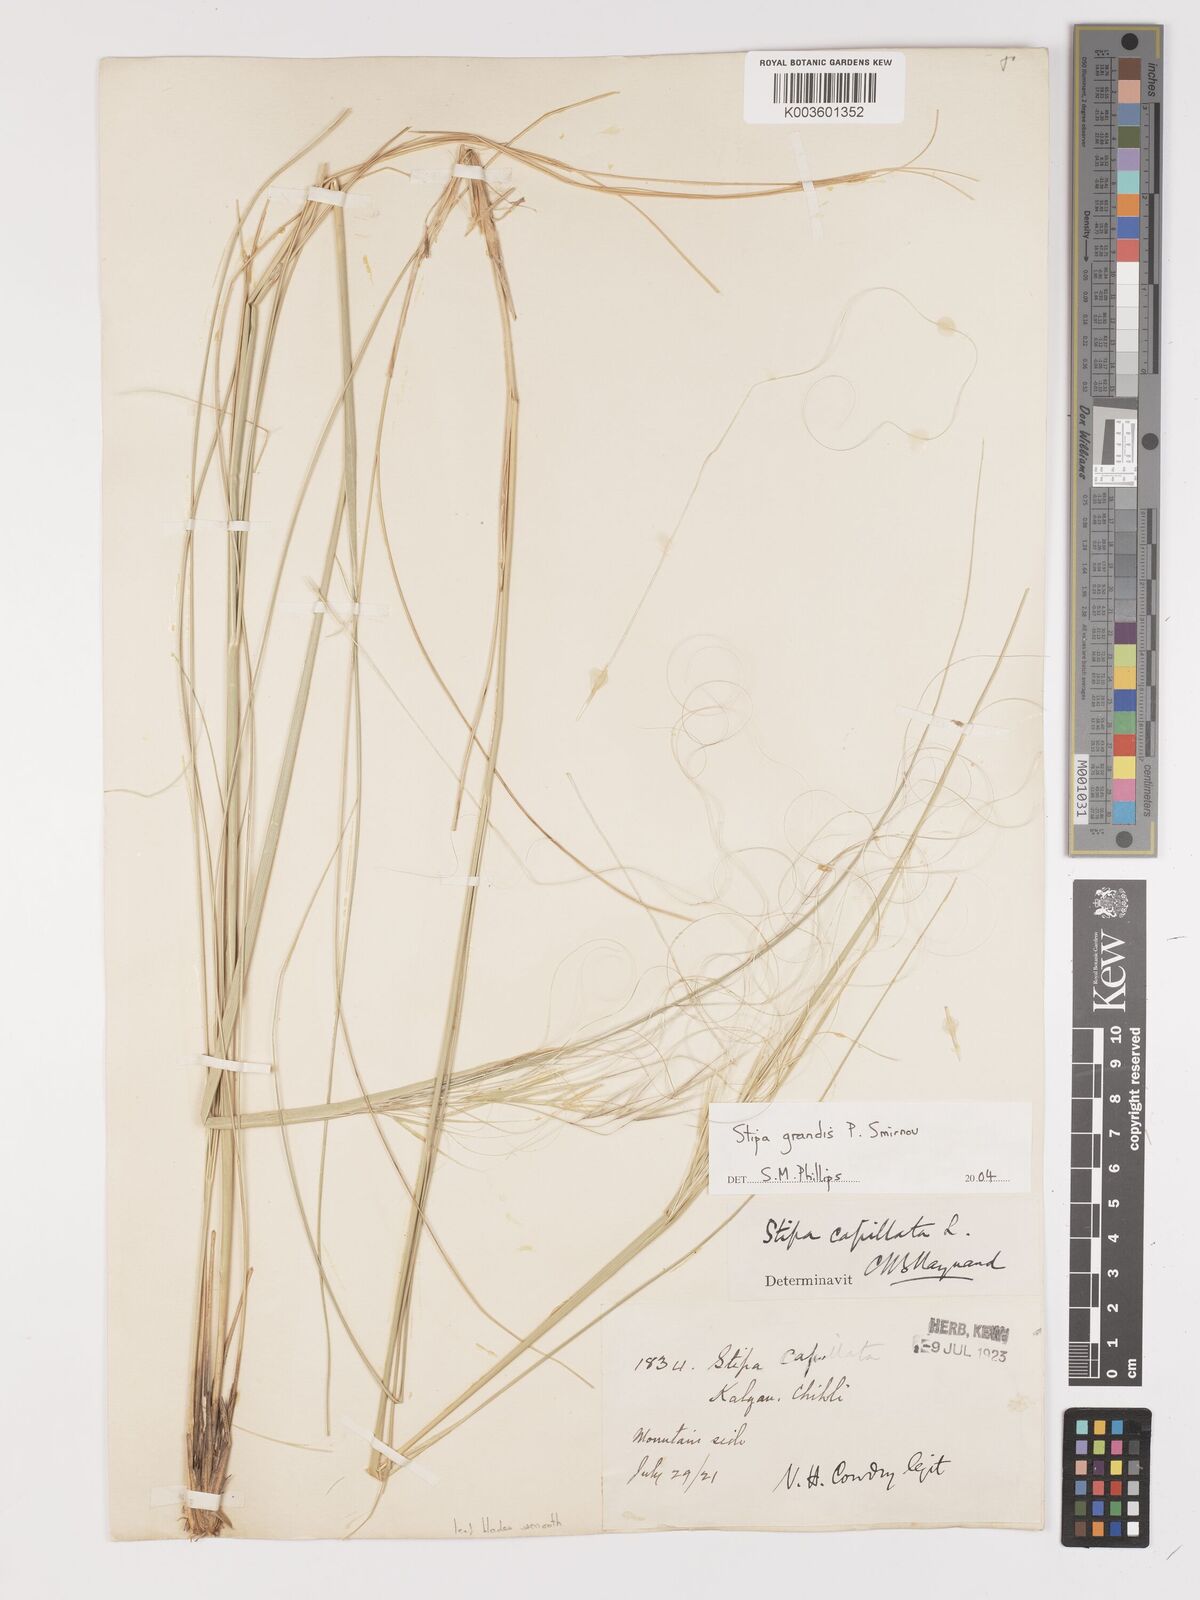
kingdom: Plantae
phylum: Tracheophyta
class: Liliopsida
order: Poales
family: Poaceae
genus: Stipa
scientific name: Stipa grandis
